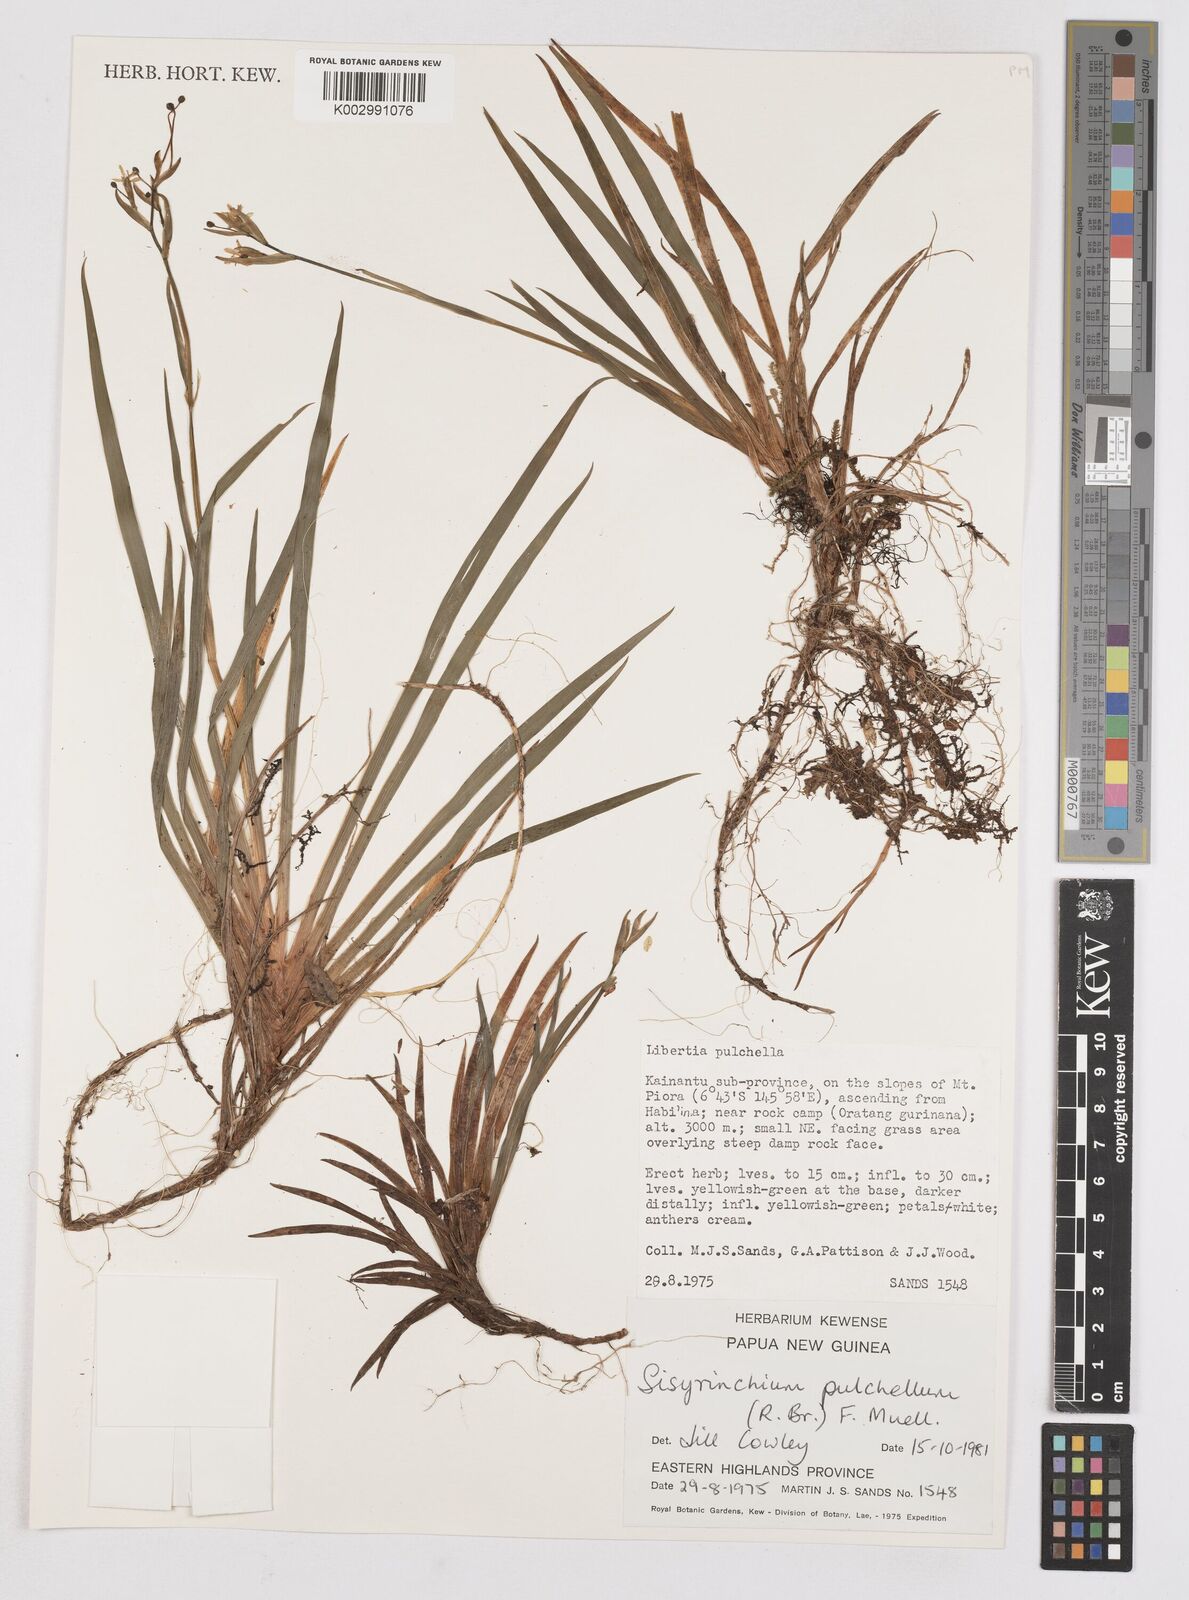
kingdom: Plantae
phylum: Tracheophyta
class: Liliopsida
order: Asparagales
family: Iridaceae
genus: Libertia
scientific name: Libertia pulchella
